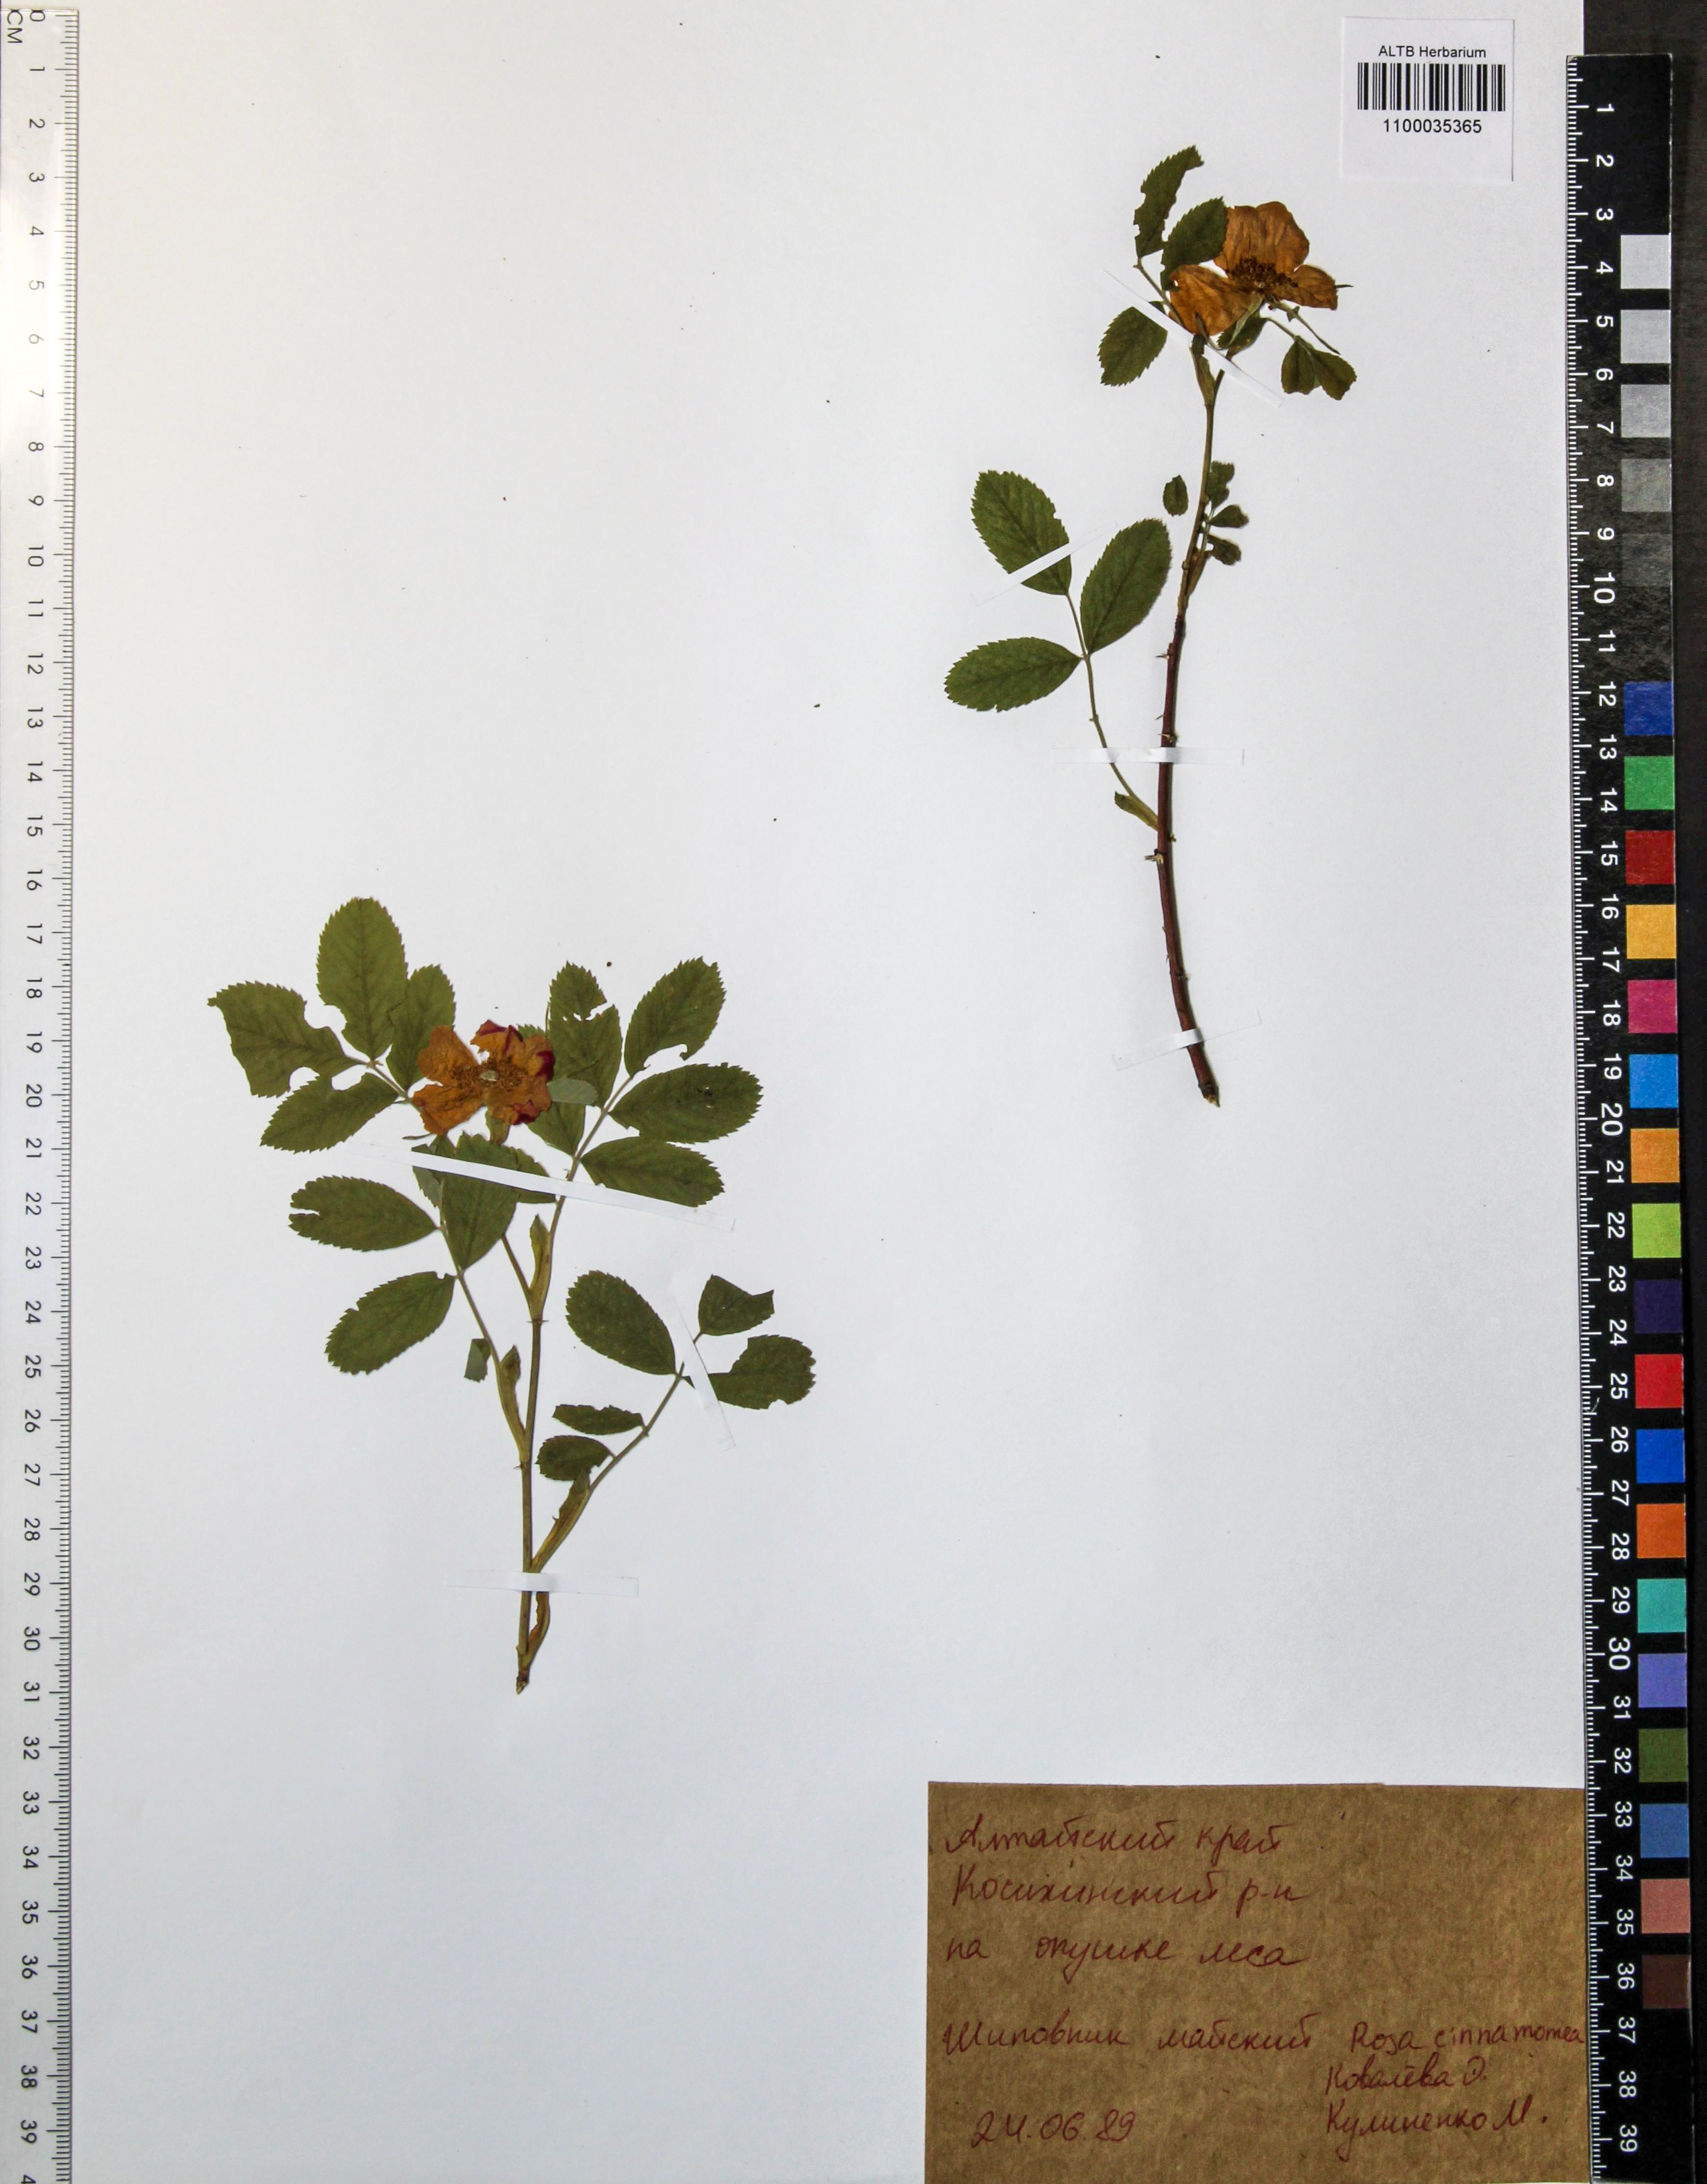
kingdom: Plantae
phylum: Tracheophyta
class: Magnoliopsida
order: Rosales
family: Rosaceae
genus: Rosa
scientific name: Rosa pendulina
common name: Alpine rose
